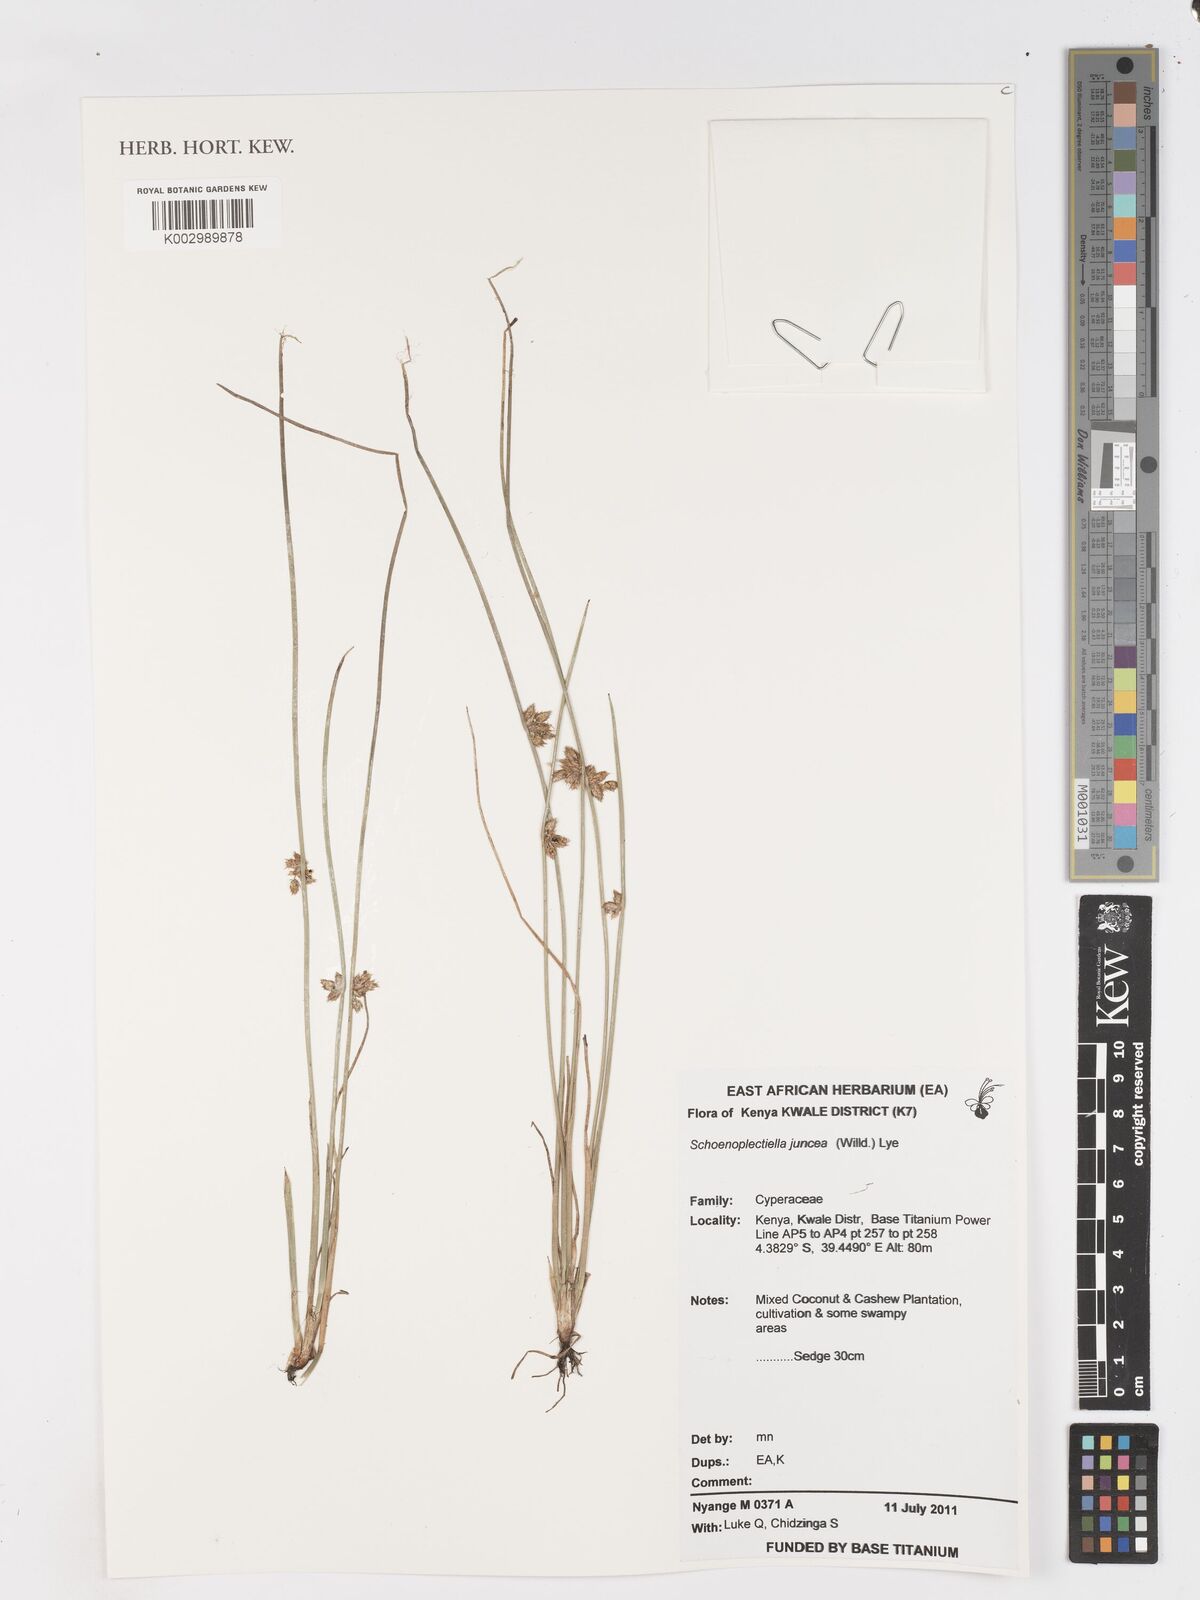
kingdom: Plantae
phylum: Tracheophyta
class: Liliopsida
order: Poales
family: Cyperaceae
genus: Schoenoplectiella
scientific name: Schoenoplectiella juncea
